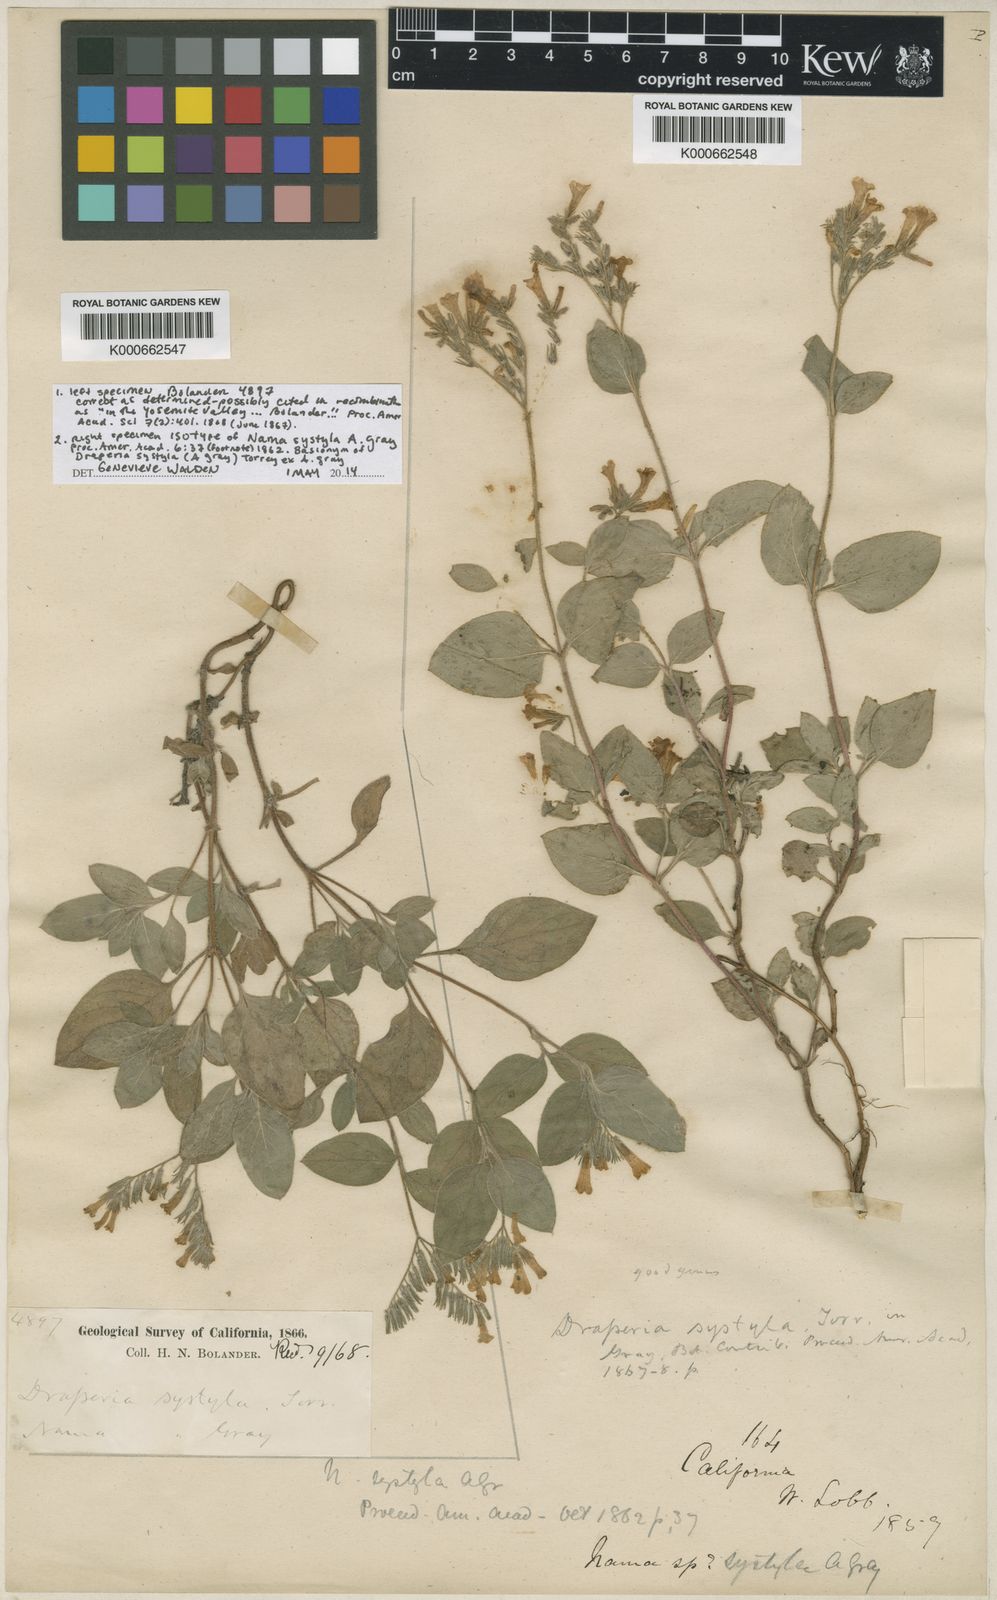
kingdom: Plantae
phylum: Tracheophyta
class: Magnoliopsida
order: Boraginales
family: Hydrophyllaceae
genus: Draperia
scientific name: Draperia systyla
